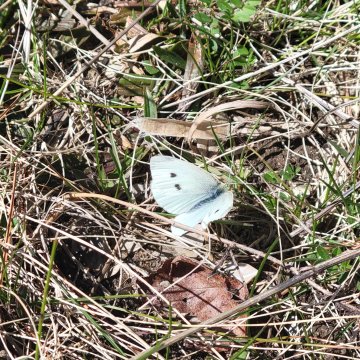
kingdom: Animalia
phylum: Arthropoda
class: Insecta
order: Lepidoptera
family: Pieridae
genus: Pieris
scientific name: Pieris rapae
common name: Cabbage White
